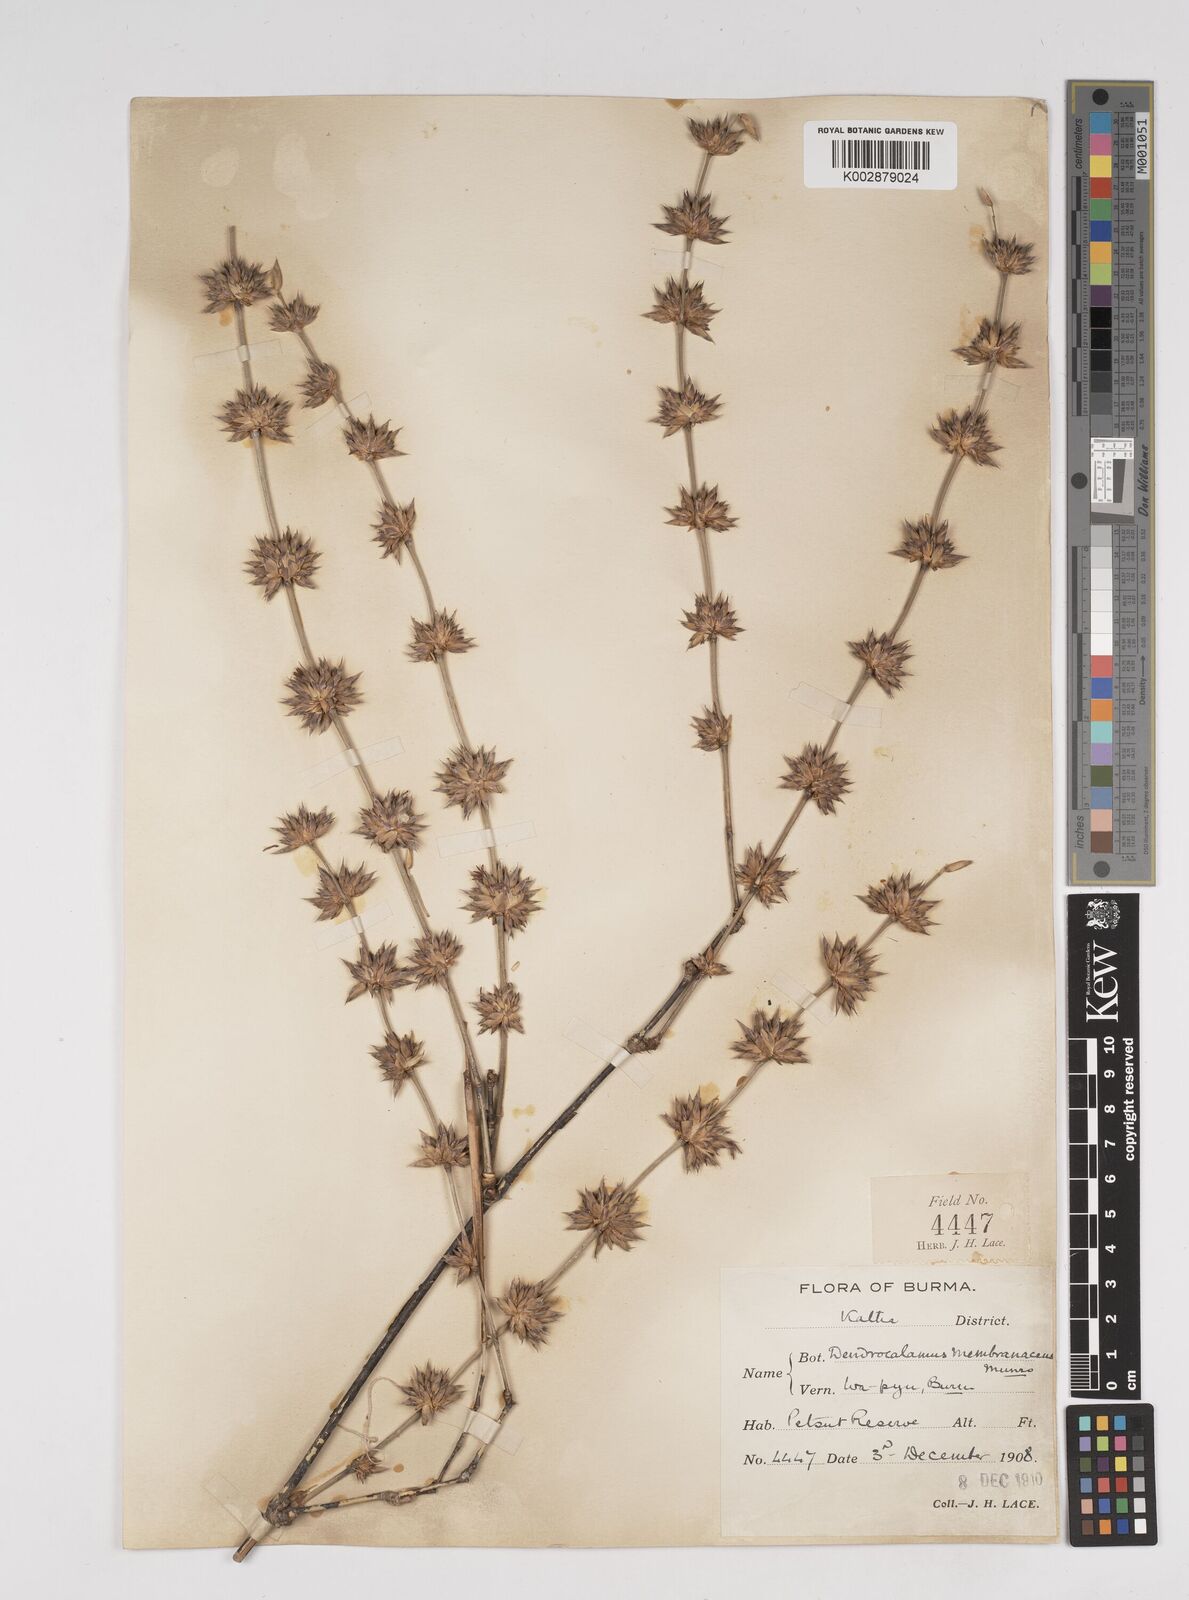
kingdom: Plantae
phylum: Tracheophyta
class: Liliopsida
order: Poales
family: Poaceae
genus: Dendrocalamus
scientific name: Dendrocalamus membranaceus
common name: White bamboo
